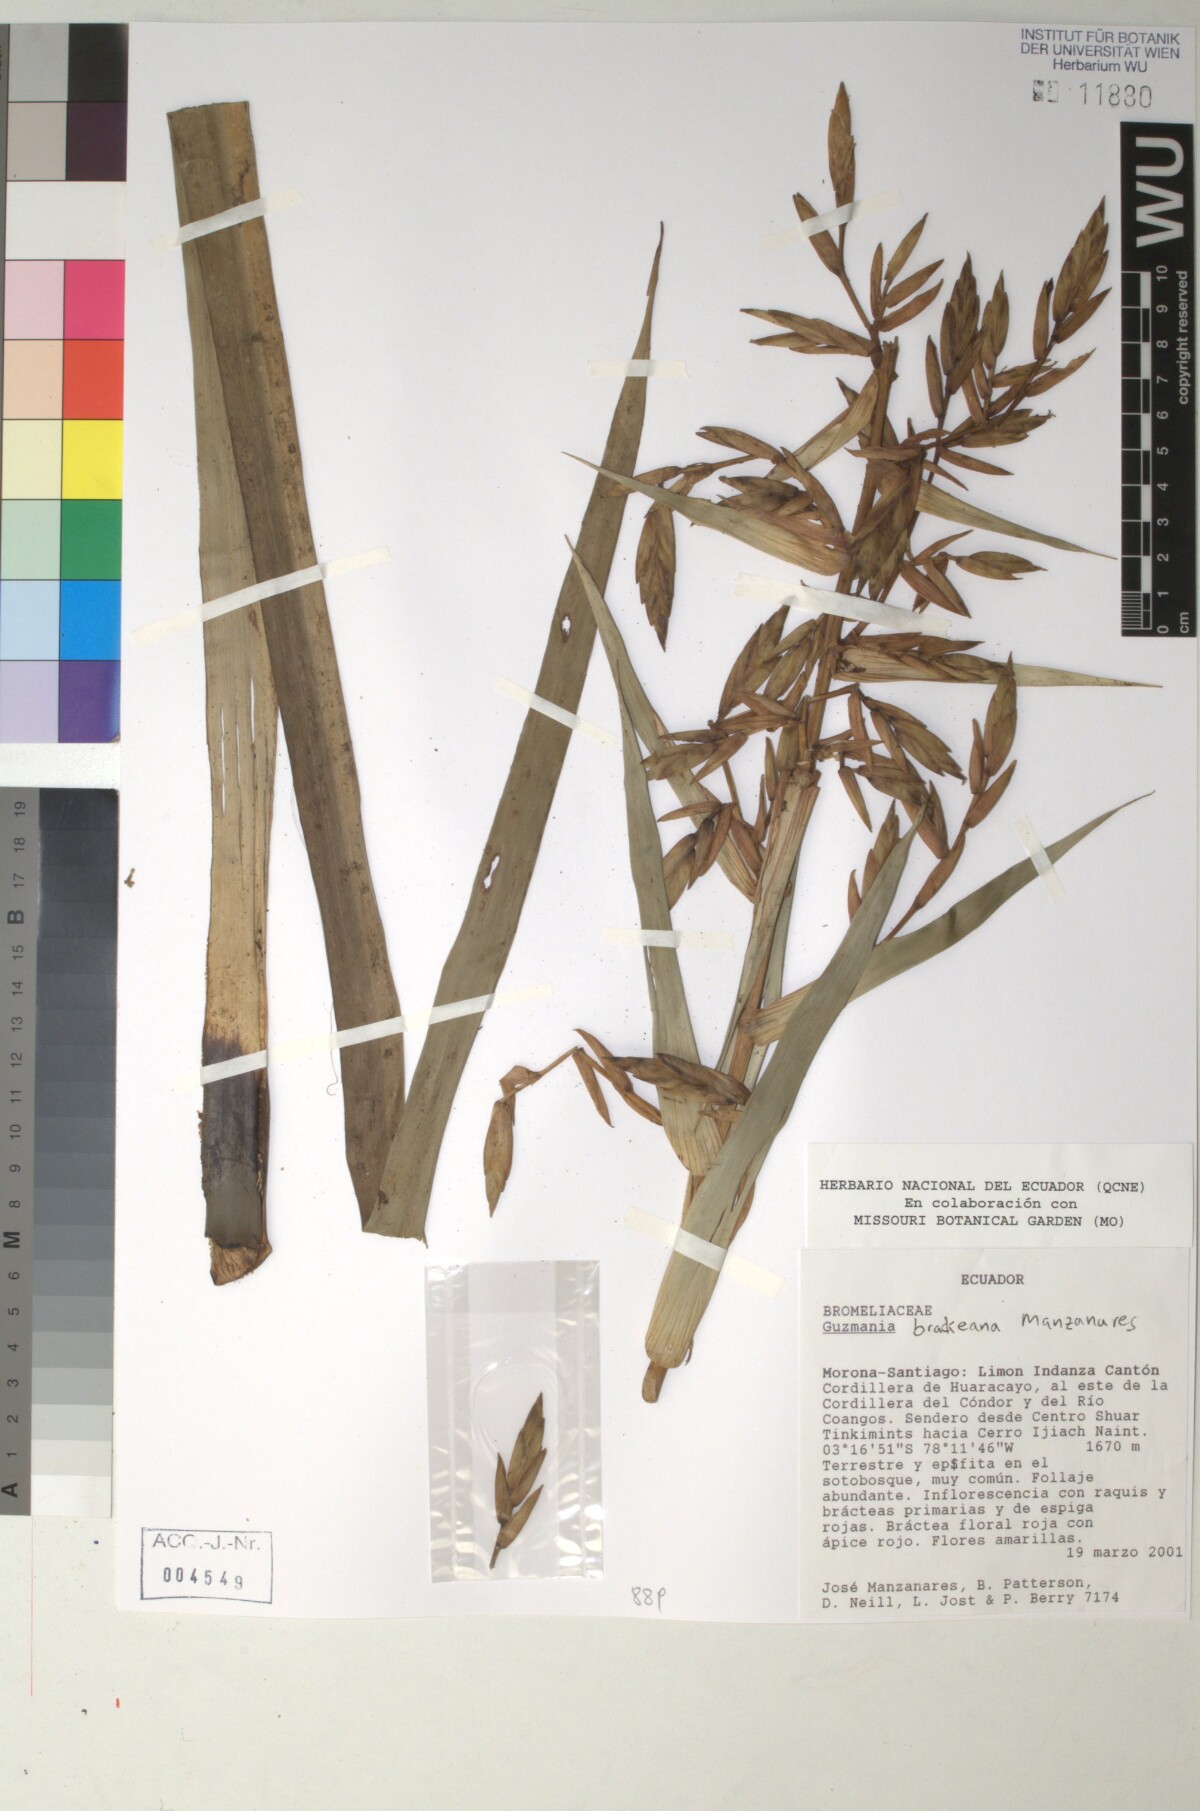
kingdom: Plantae
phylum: Tracheophyta
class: Liliopsida
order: Poales
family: Bromeliaceae
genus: Guzmania
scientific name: Guzmania brackeana
